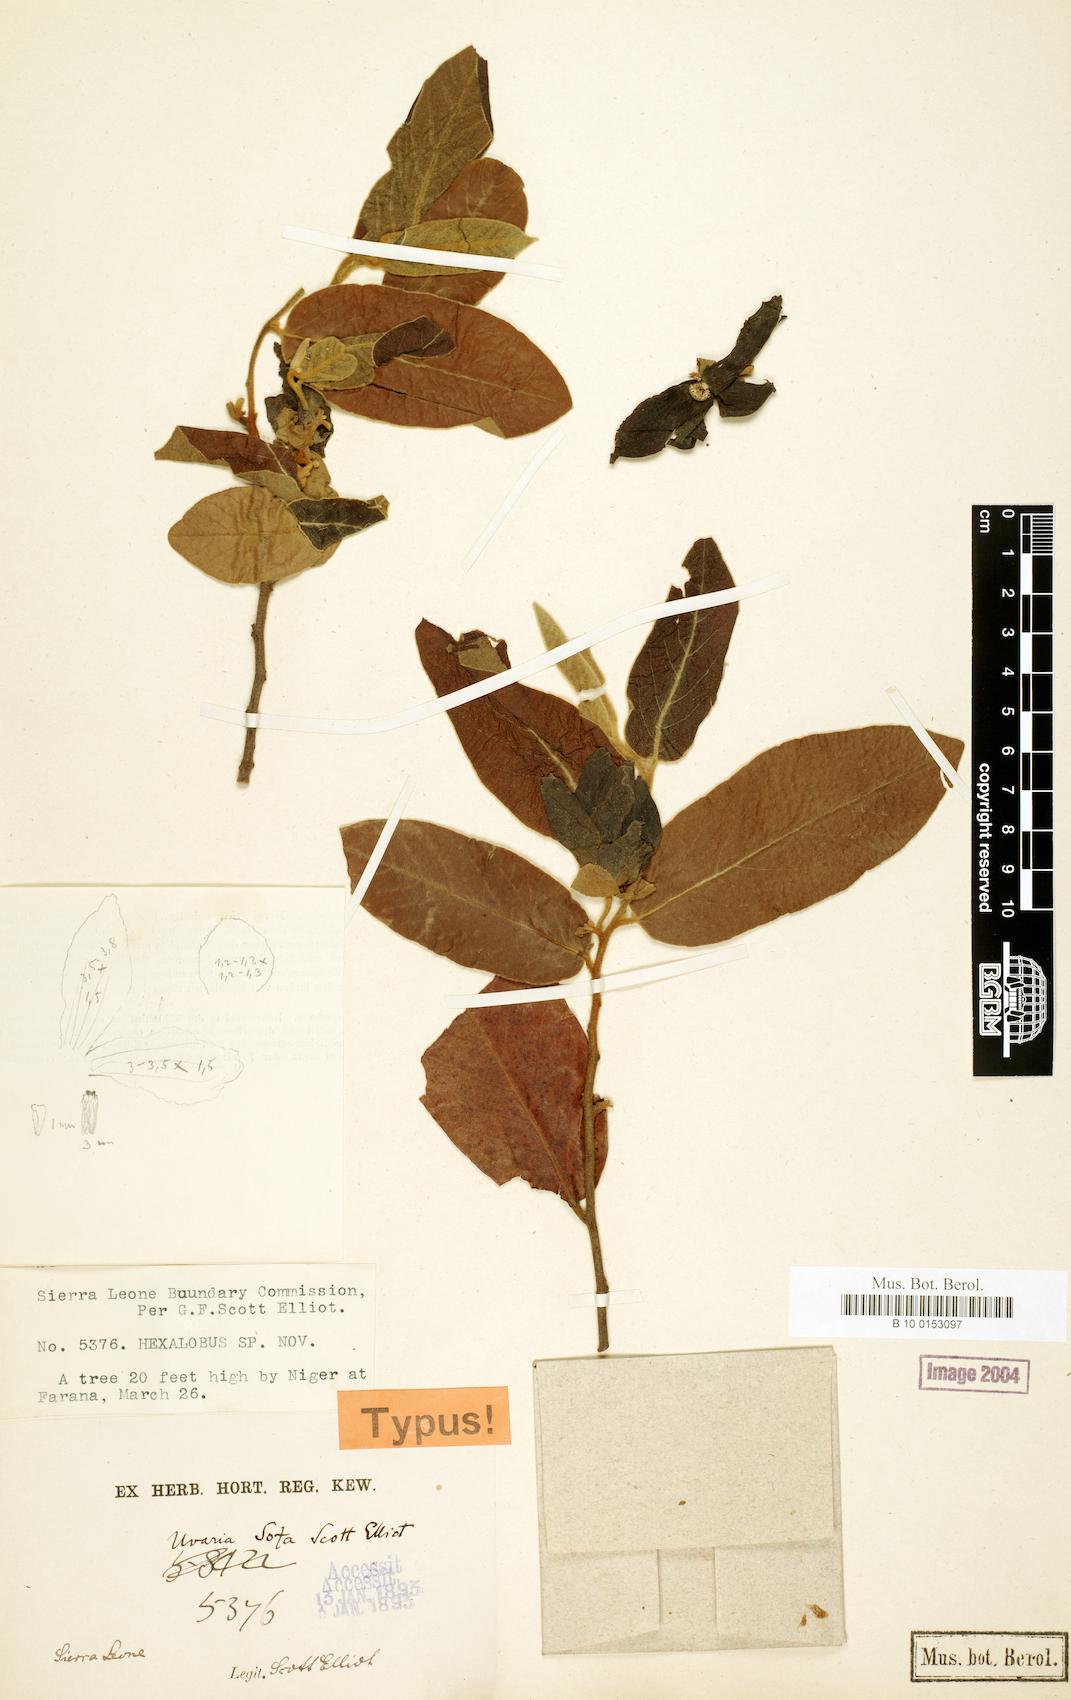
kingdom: Plantae
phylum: Tracheophyta
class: Magnoliopsida
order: Magnoliales
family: Annonaceae
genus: Uvaria
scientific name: Uvaria sofa
